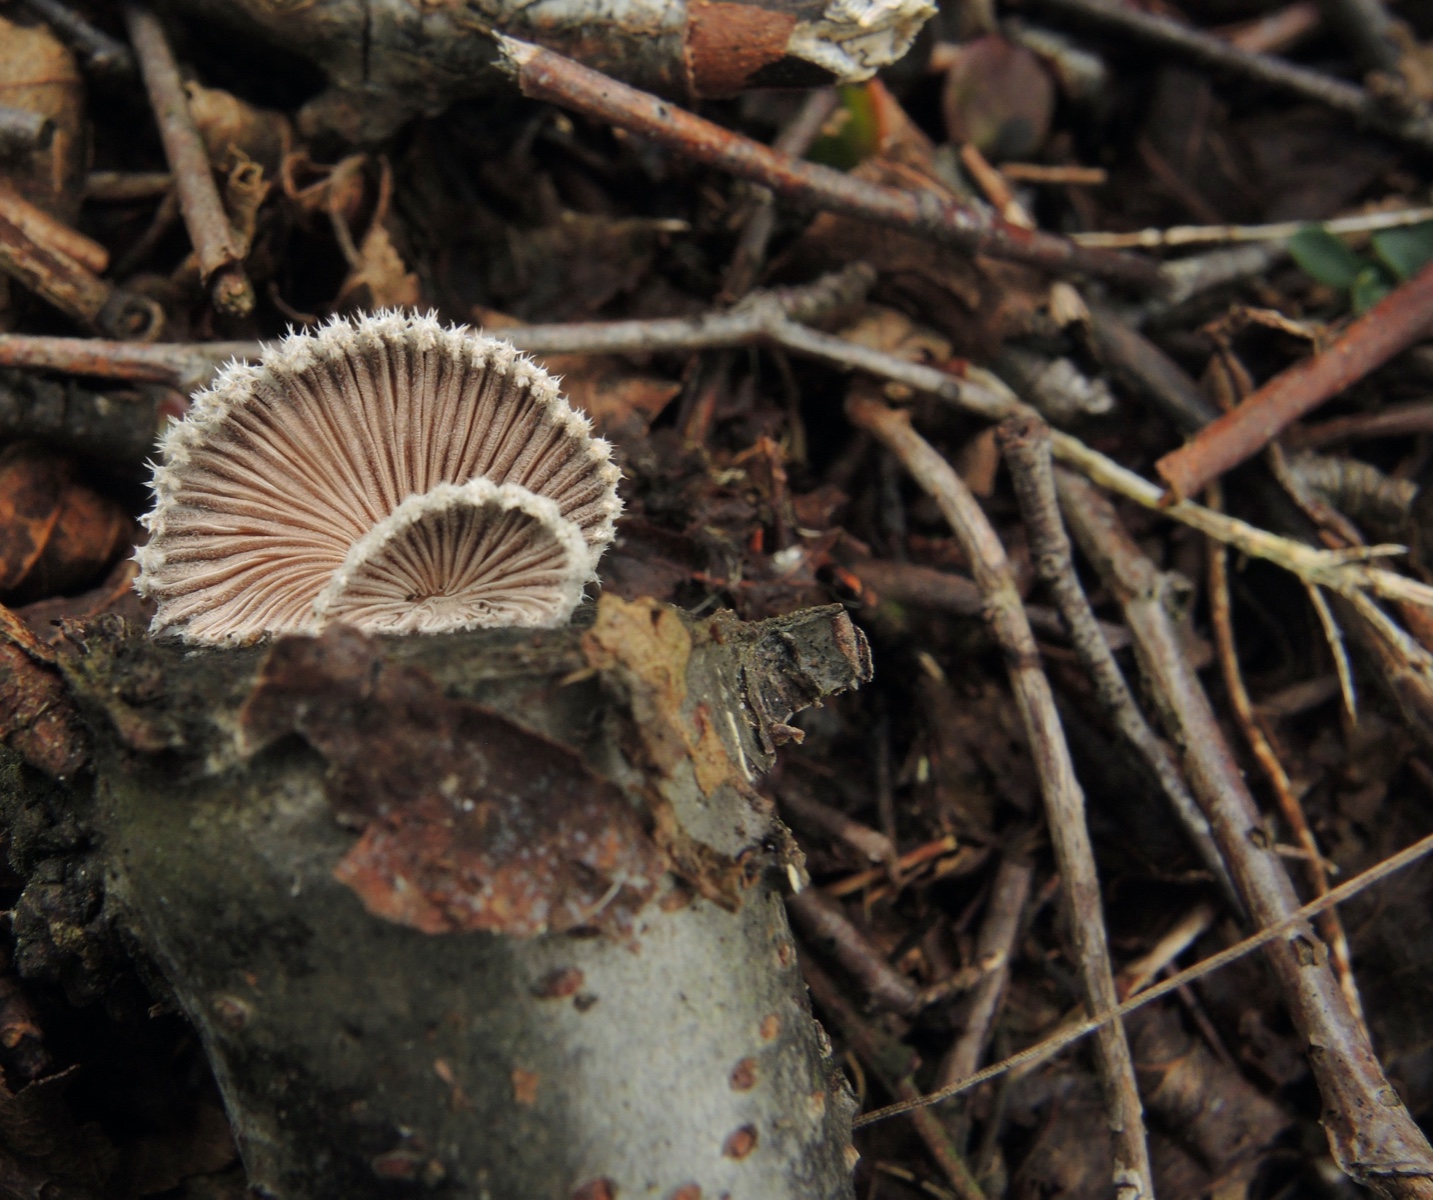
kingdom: Fungi
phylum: Basidiomycota
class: Agaricomycetes
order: Agaricales
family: Schizophyllaceae
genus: Schizophyllum
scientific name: Schizophyllum commune
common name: kløvblad
